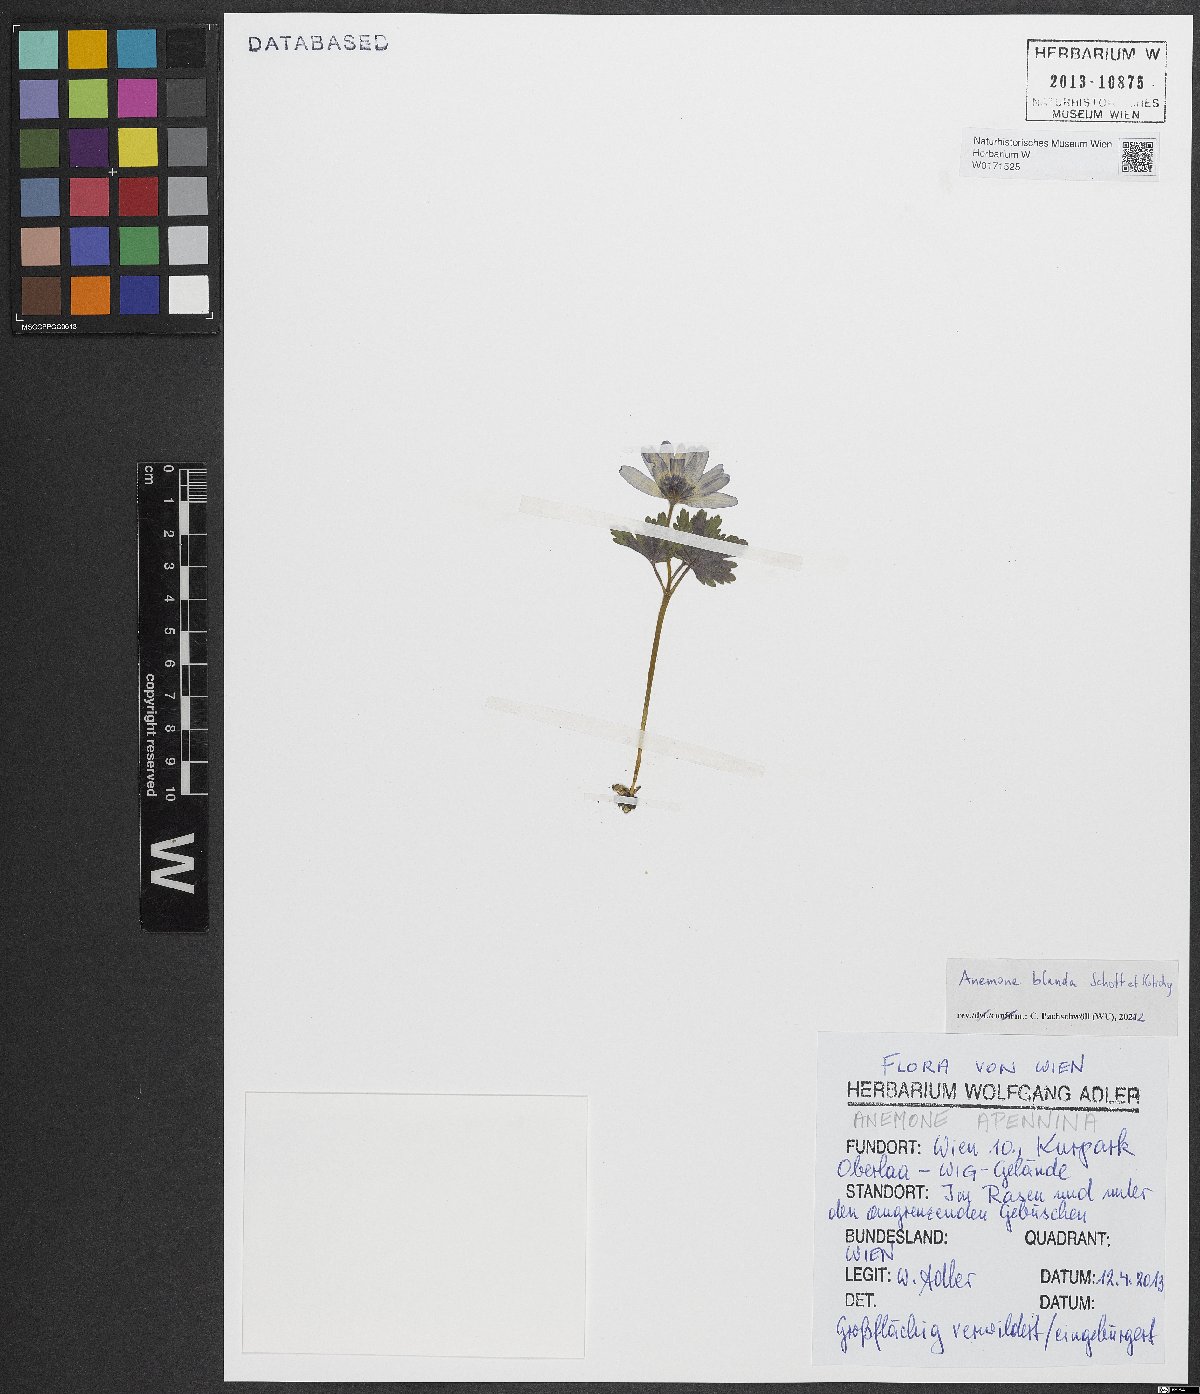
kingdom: Plantae
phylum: Tracheophyta
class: Magnoliopsida
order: Ranunculales
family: Ranunculaceae
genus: Anemone
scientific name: Anemone blanda
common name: Balkan anemone
